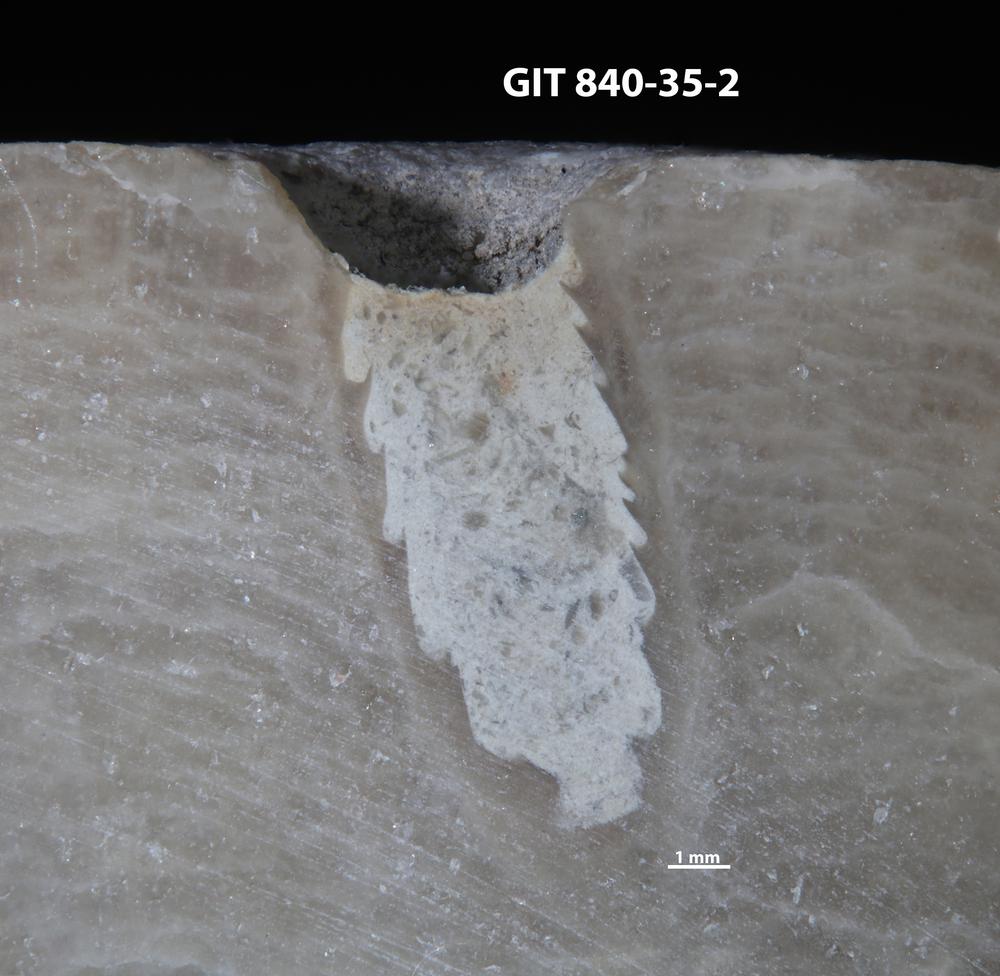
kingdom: Animalia
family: Cornulitidae
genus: Cornulites
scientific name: Cornulites
